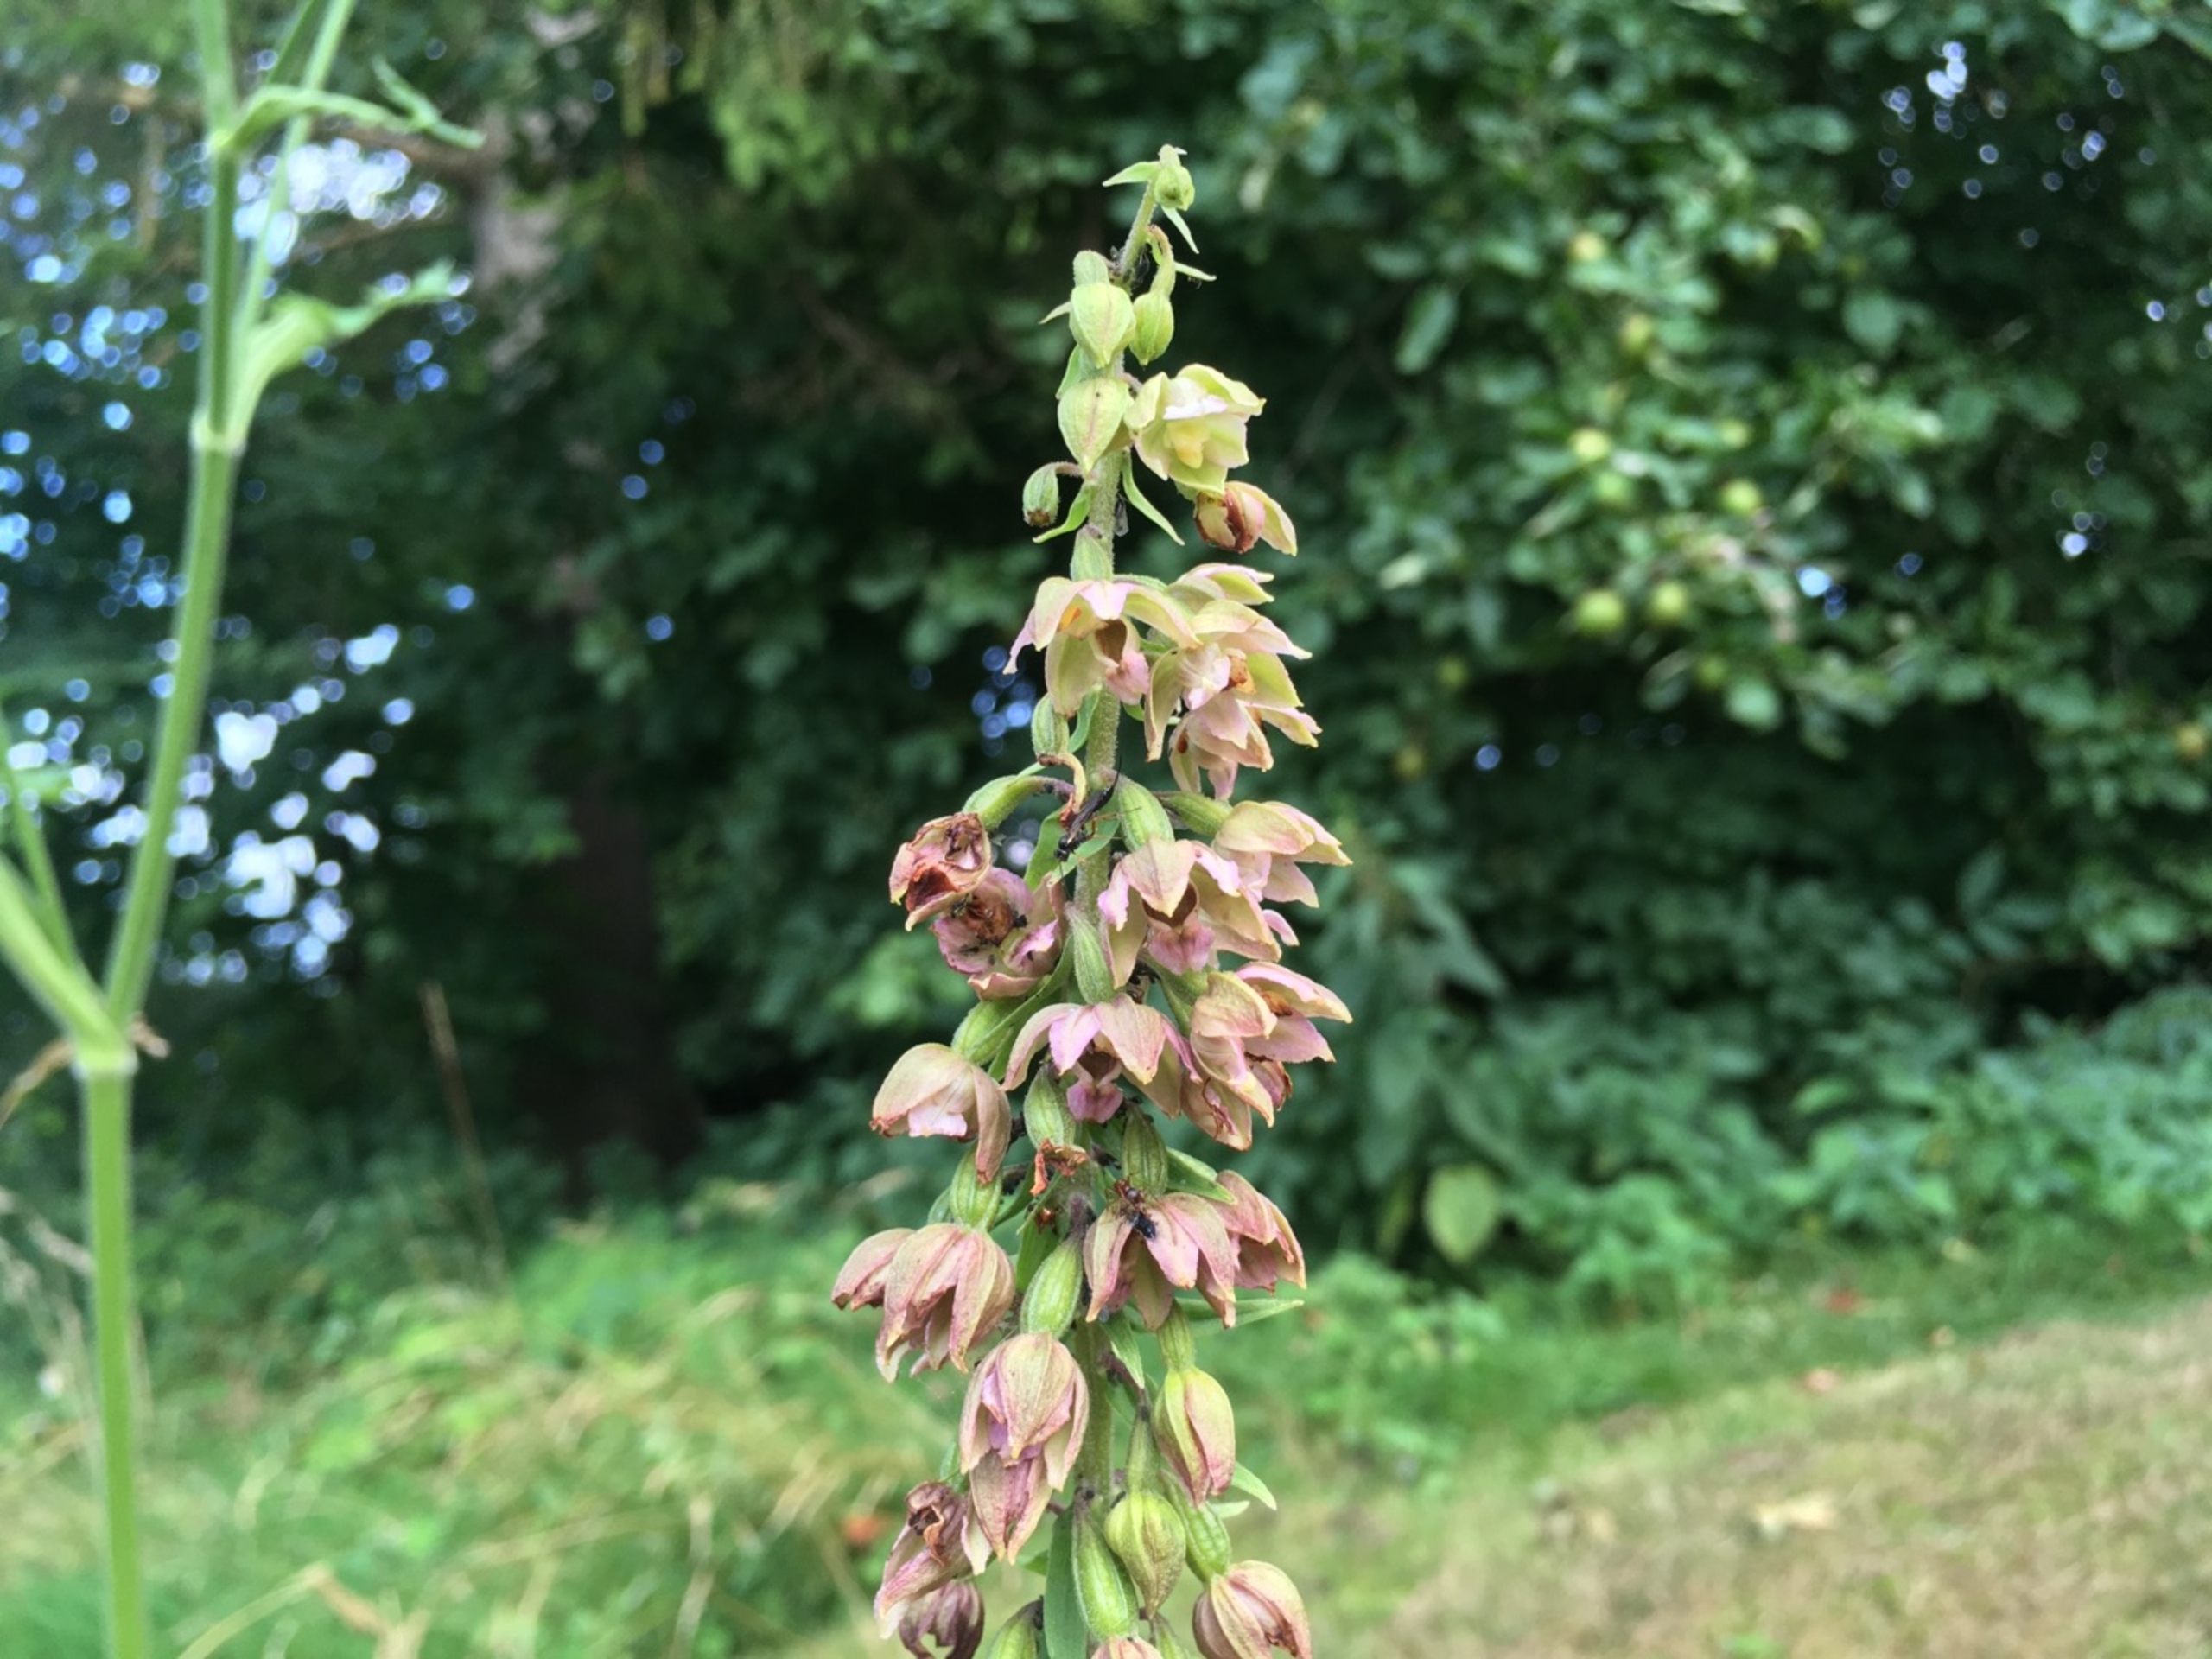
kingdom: Plantae
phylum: Tracheophyta
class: Liliopsida
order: Asparagales
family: Orchidaceae
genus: Epipactis
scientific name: Epipactis helleborine
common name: Skov-hullæbe
